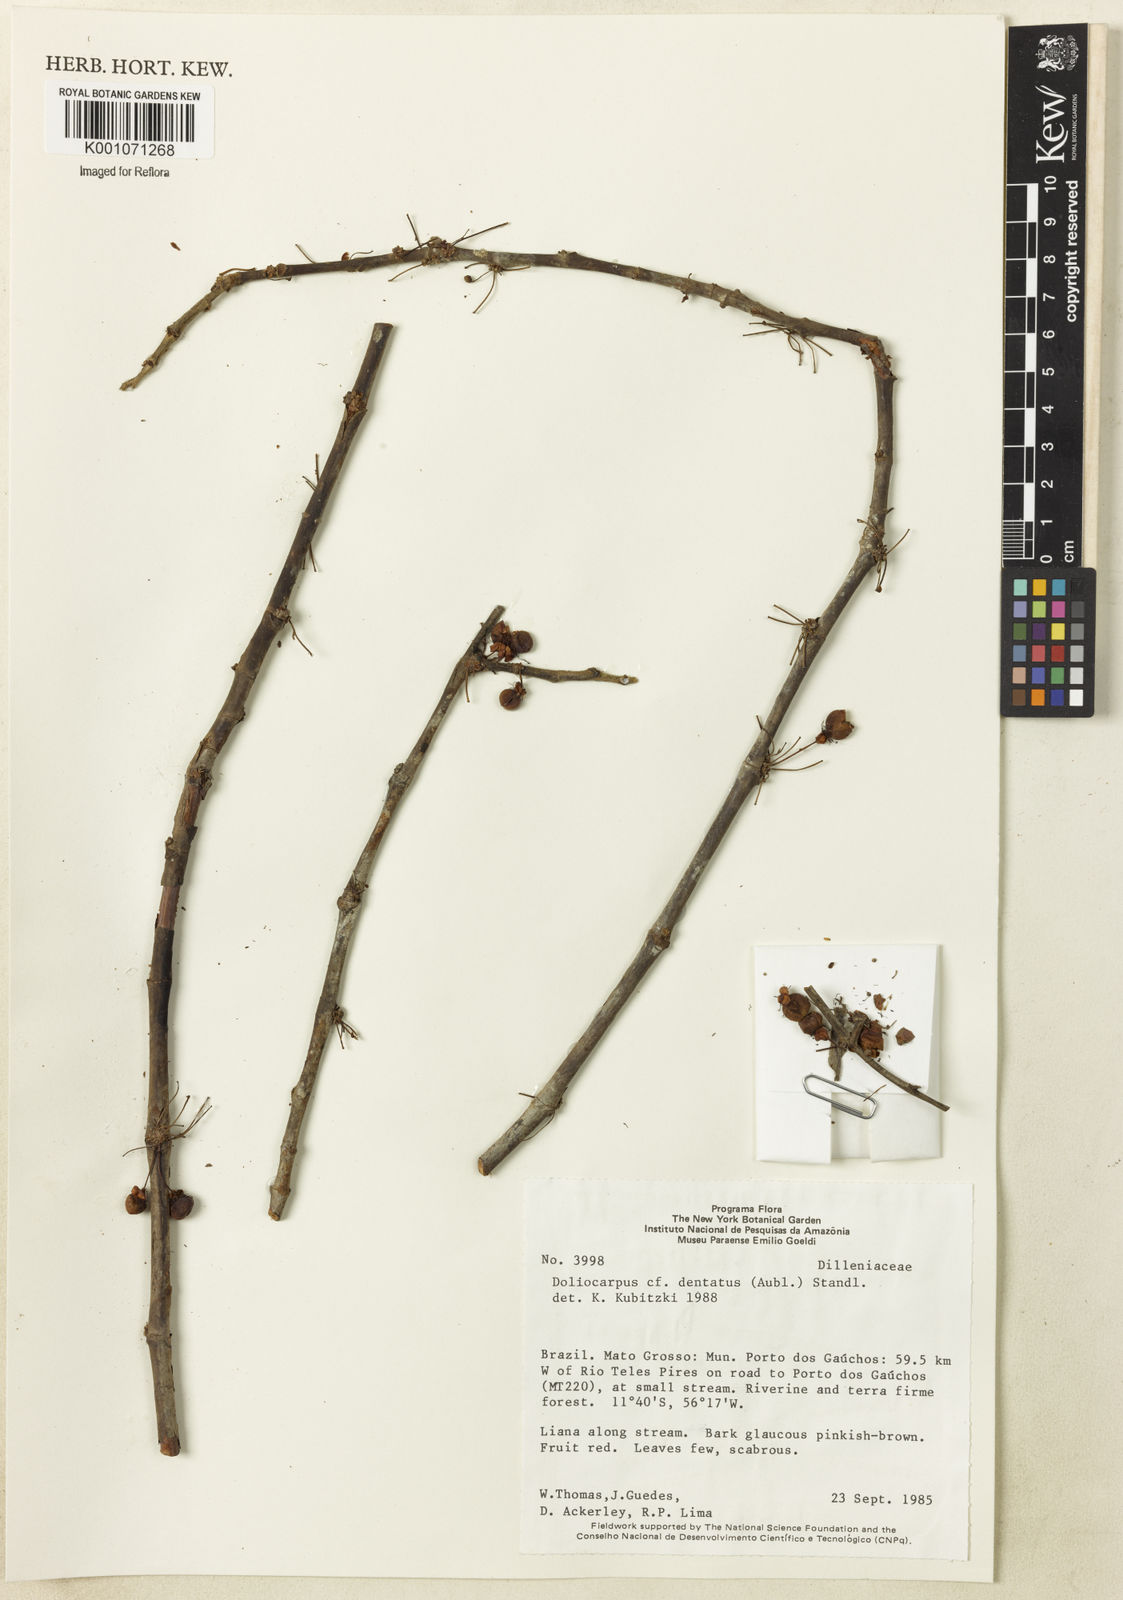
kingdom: Plantae
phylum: Tracheophyta
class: Magnoliopsida
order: Dilleniales
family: Dilleniaceae
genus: Doliocarpus
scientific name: Doliocarpus dentatus
